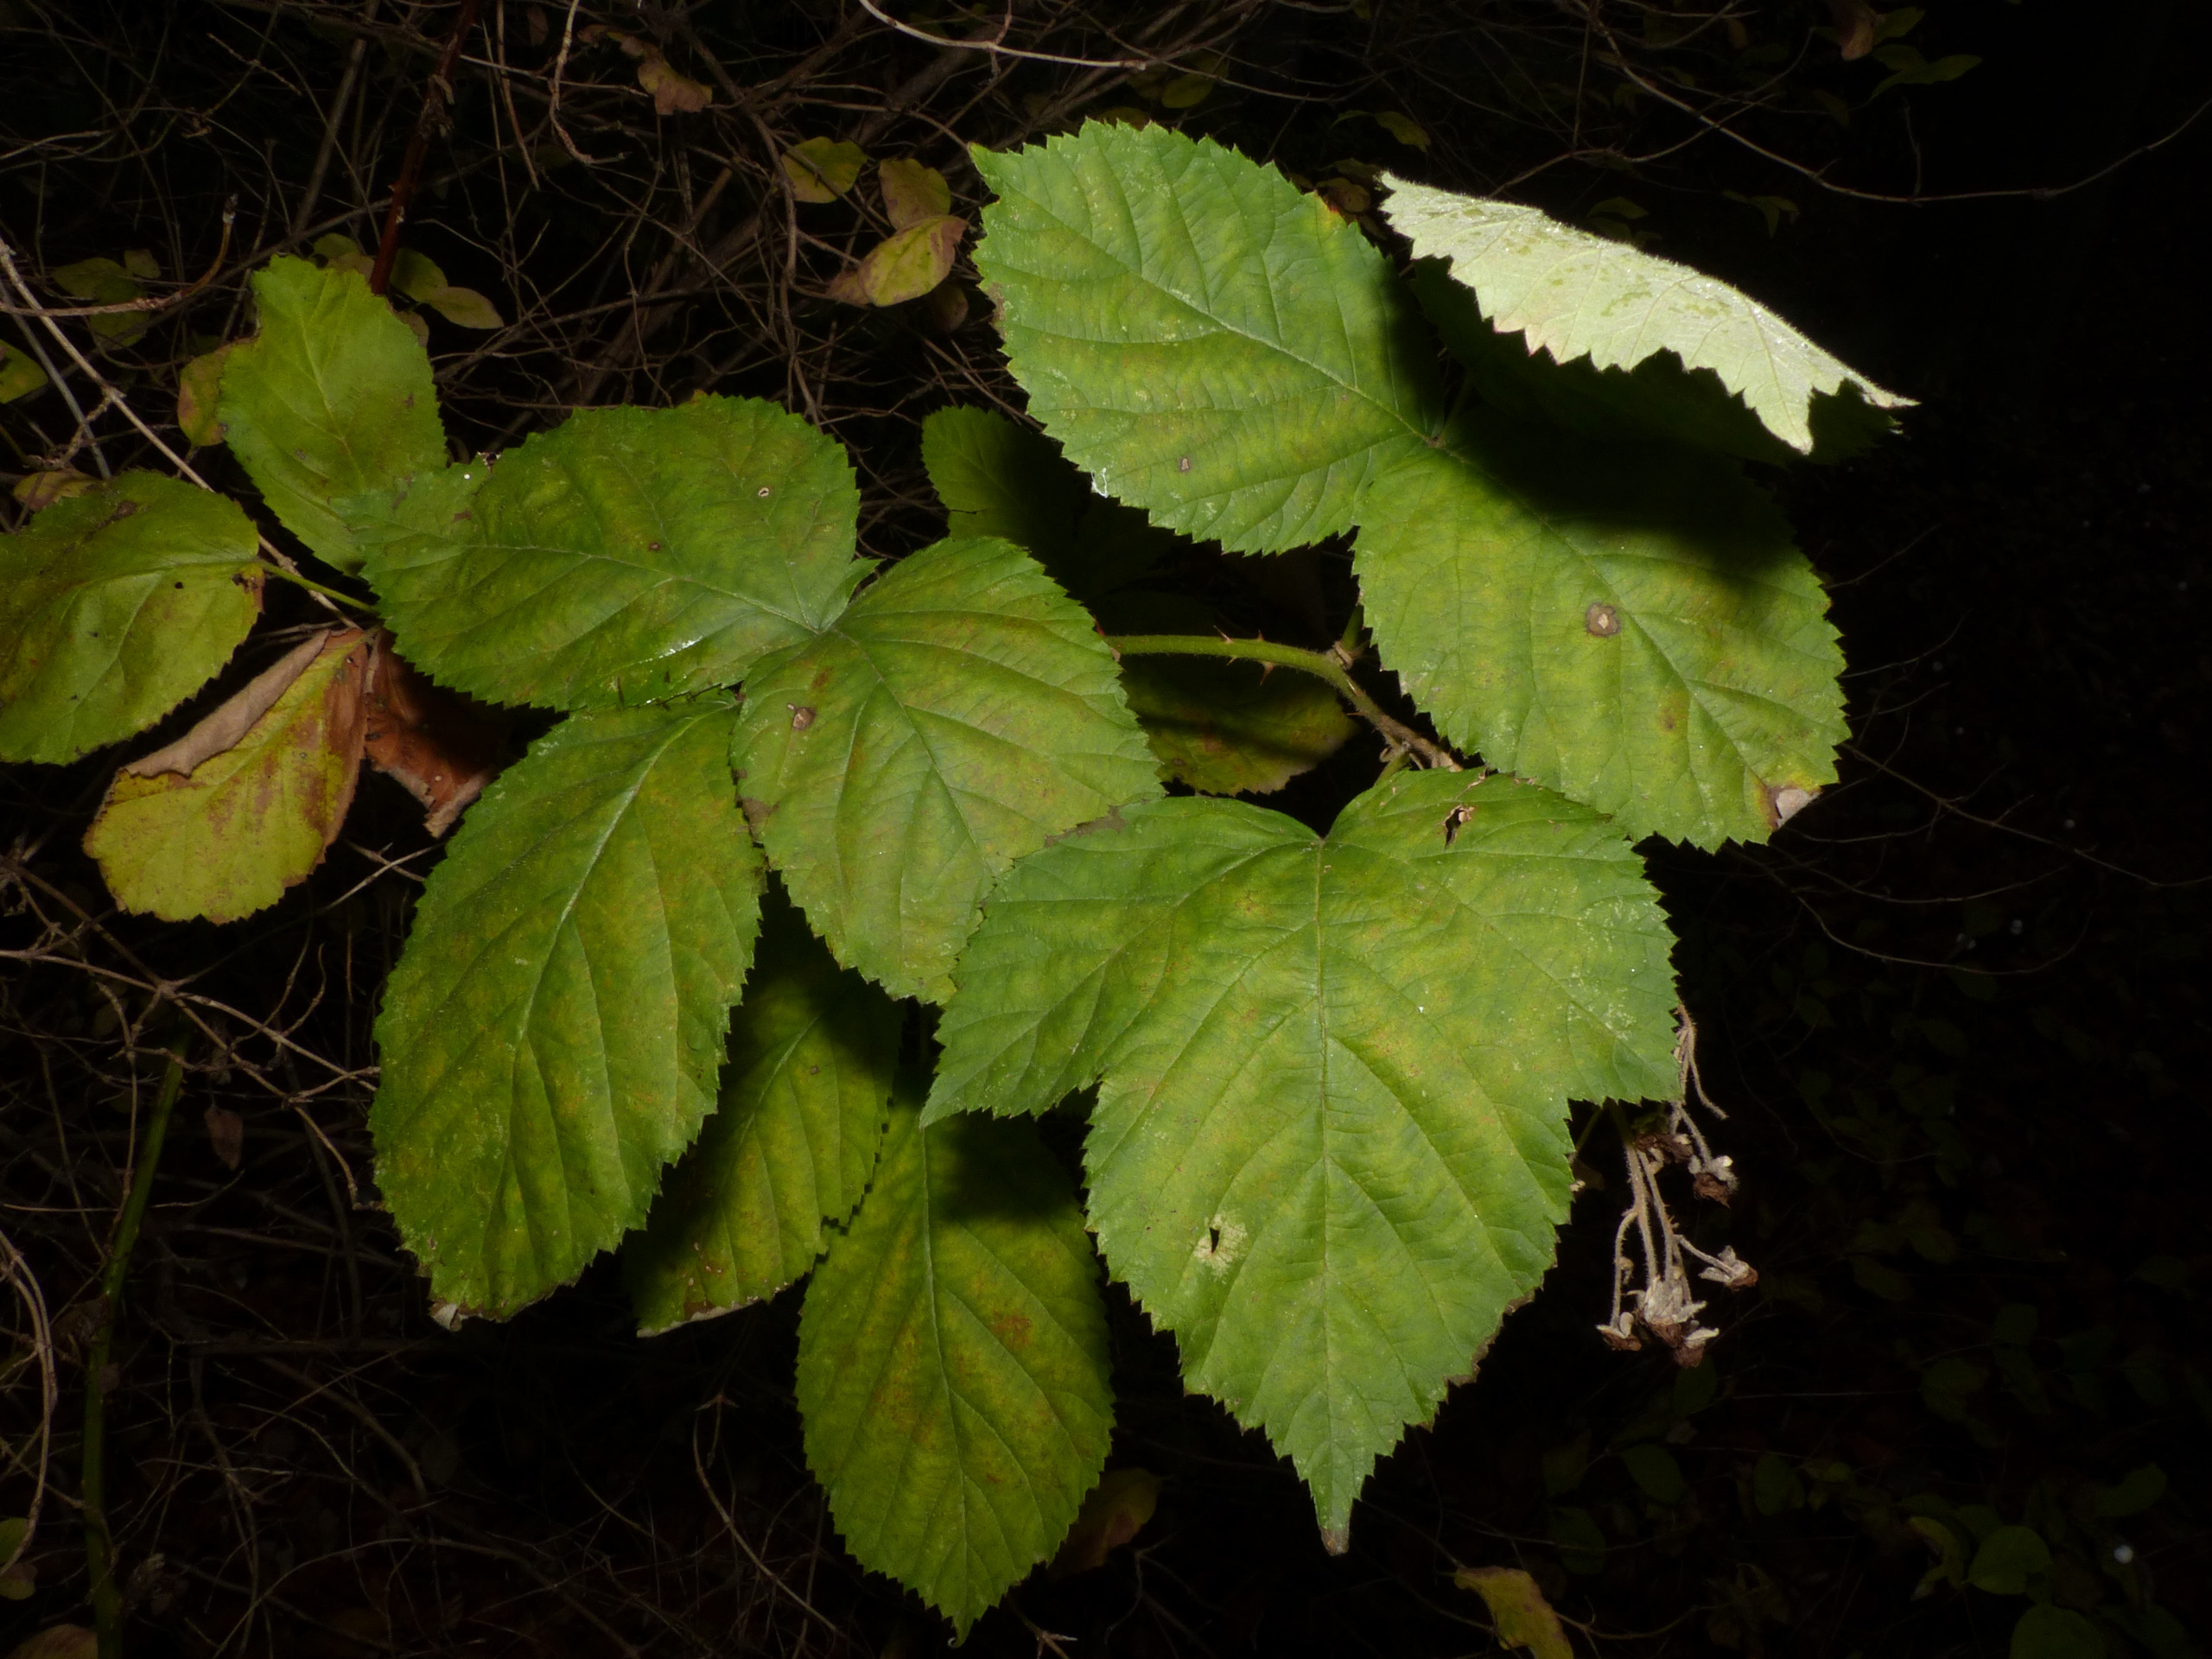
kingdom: Plantae
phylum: Tracheophyta
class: Magnoliopsida
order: Rosales
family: Rosaceae
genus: Rubus
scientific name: Rubus allegheniensis
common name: Allegheny-brombær
